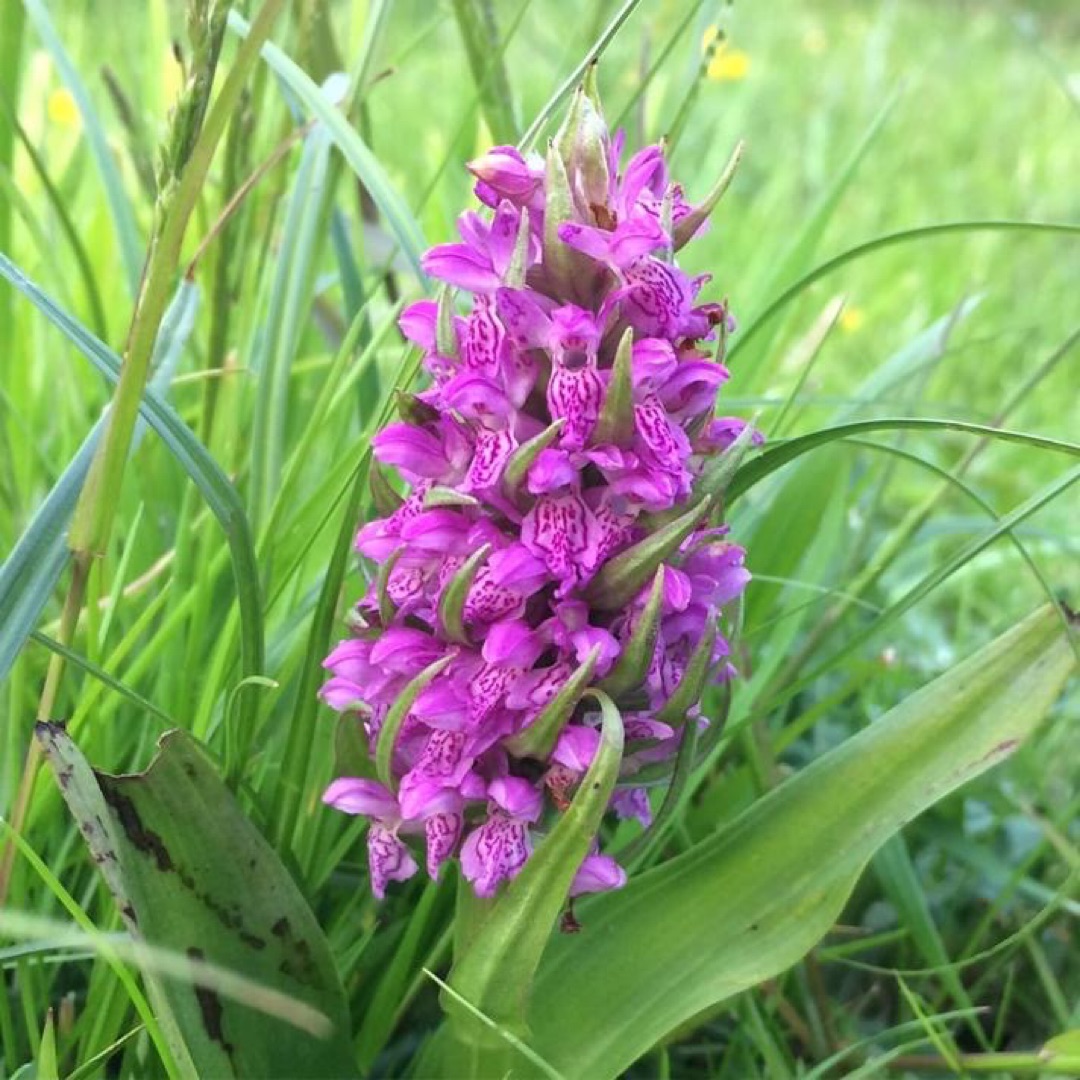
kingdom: Plantae
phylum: Tracheophyta
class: Liliopsida
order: Asparagales
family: Orchidaceae
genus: Dactylorhiza
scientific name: Dactylorhiza incarnata
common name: Kødfarvet gøgeurt
